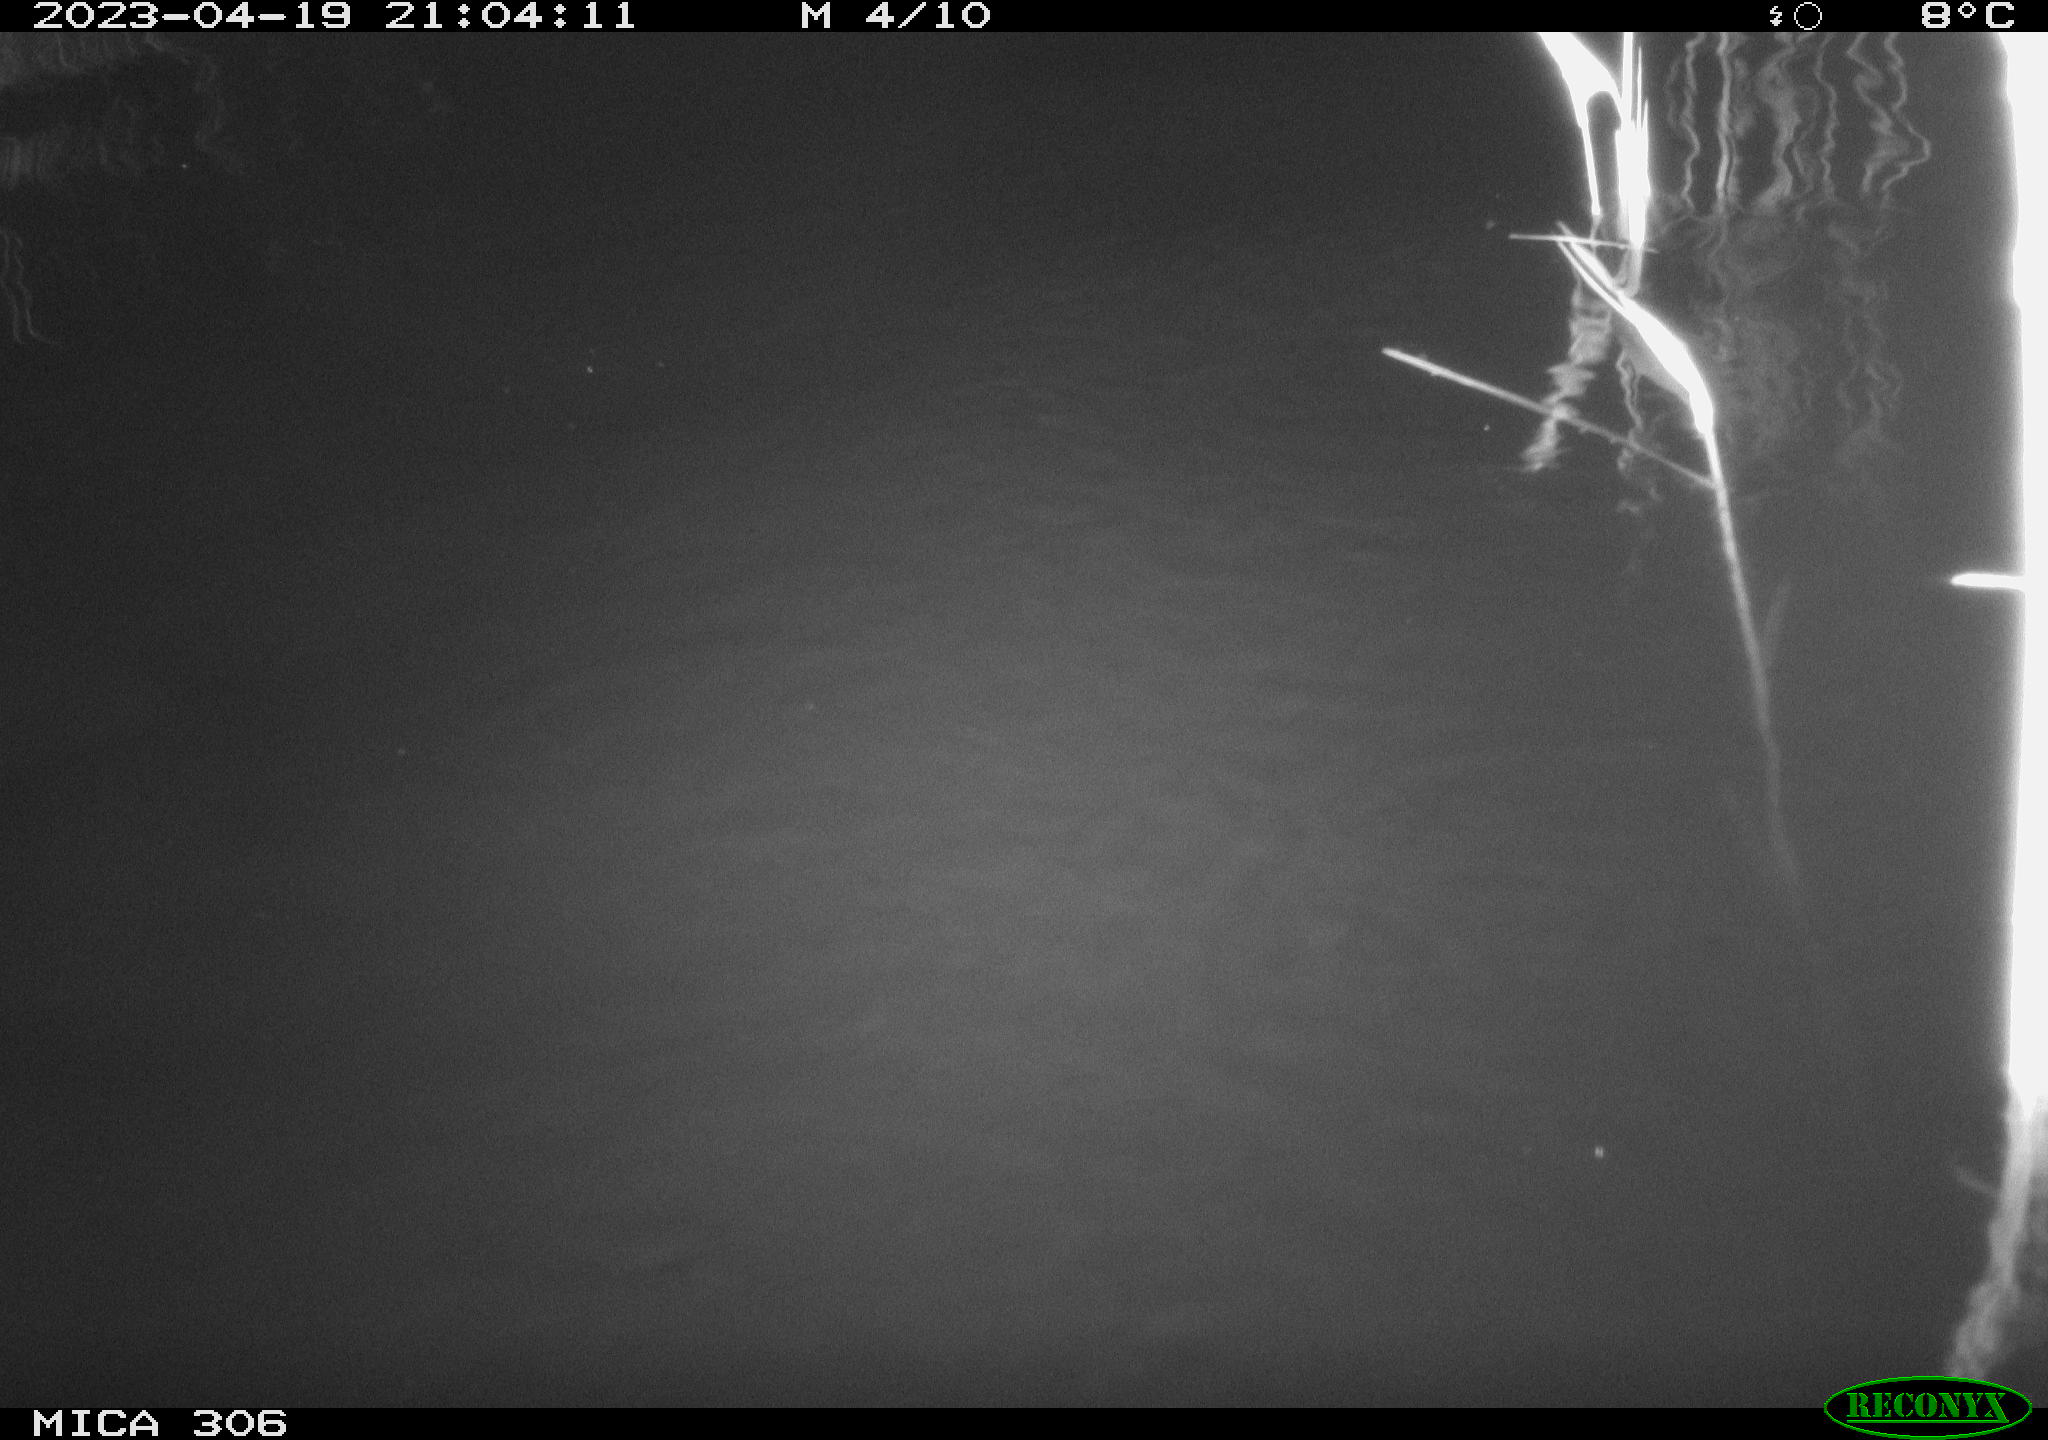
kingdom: Animalia
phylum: Chordata
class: Mammalia
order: Rodentia
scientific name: Rodentia
